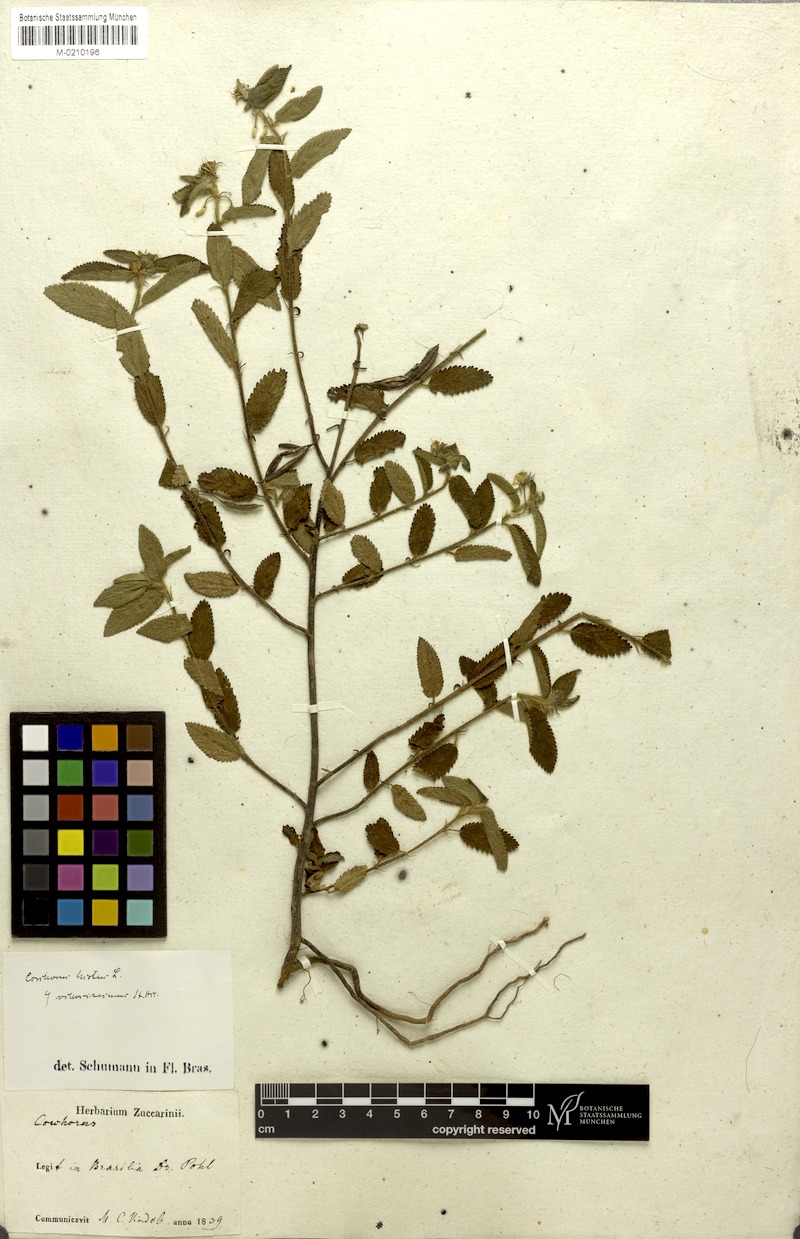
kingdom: Plantae
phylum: Tracheophyta
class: Magnoliopsida
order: Malvales
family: Malvaceae
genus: Corchorus
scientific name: Corchorus hirtus
